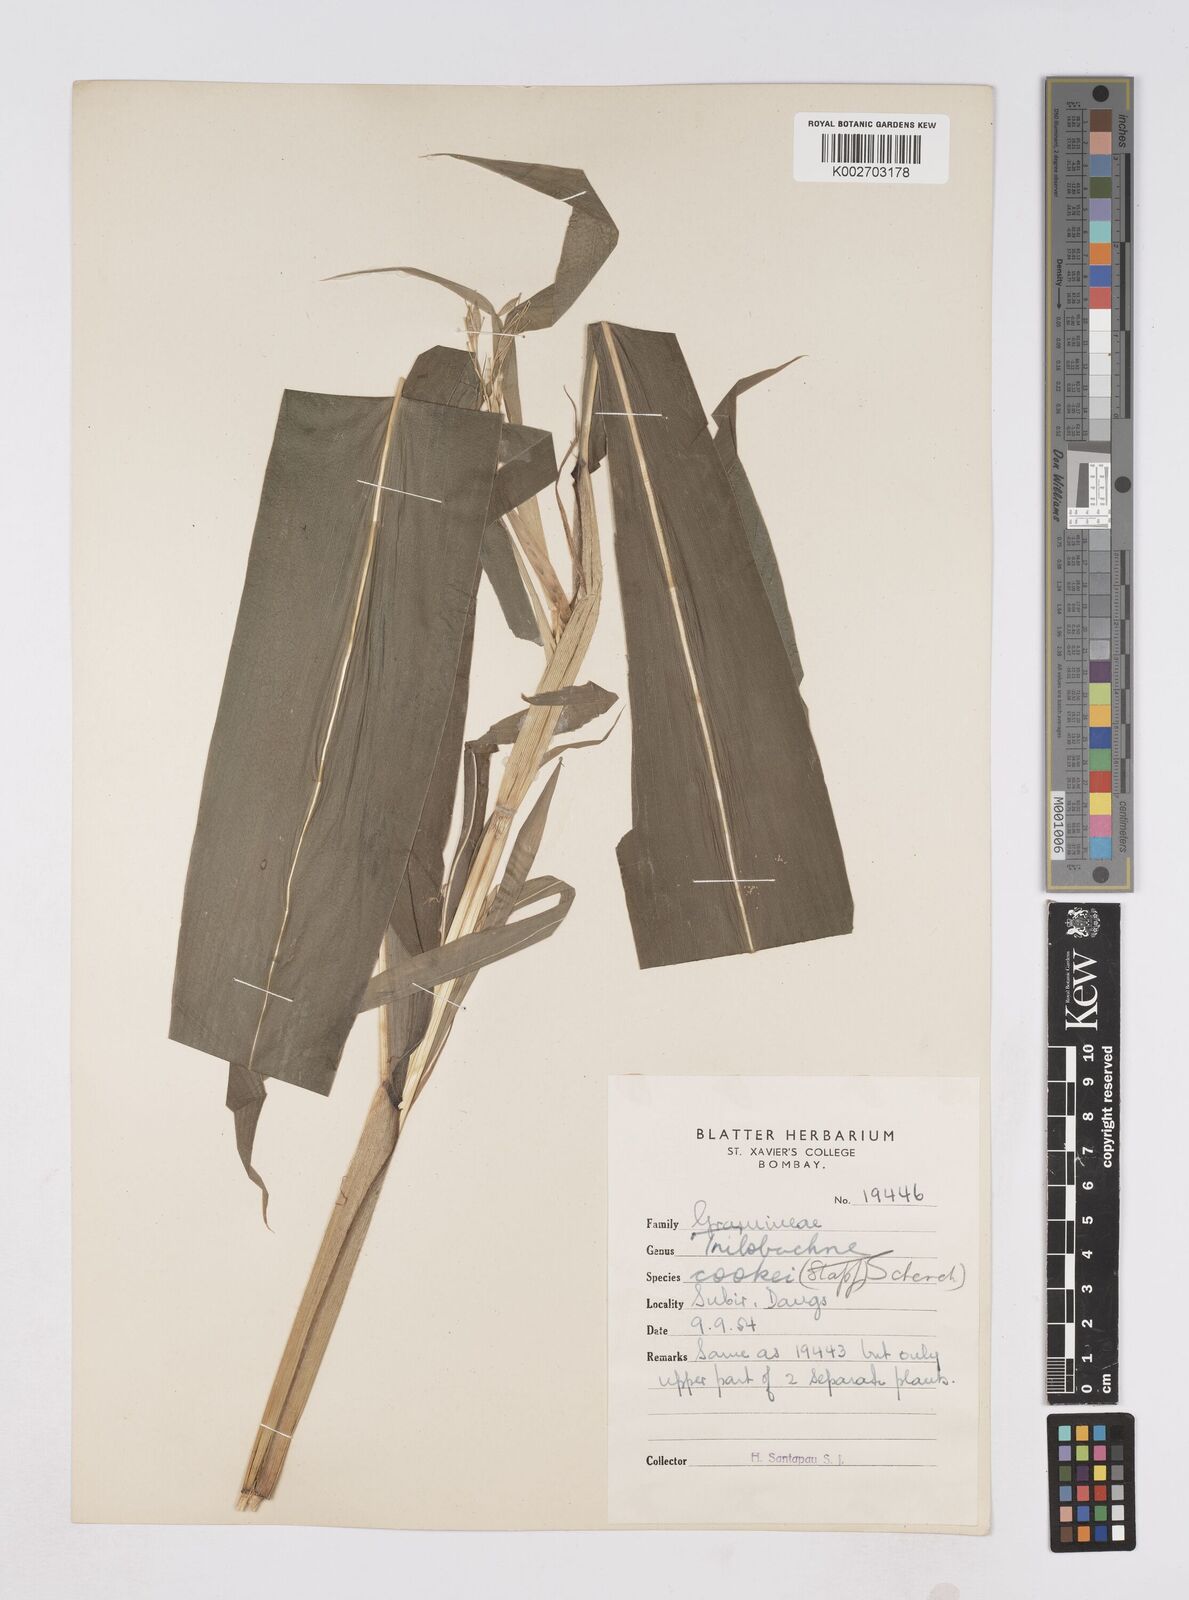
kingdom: Plantae
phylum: Tracheophyta
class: Liliopsida
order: Poales
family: Poaceae
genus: Trilobachne
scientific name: Trilobachne cookei
